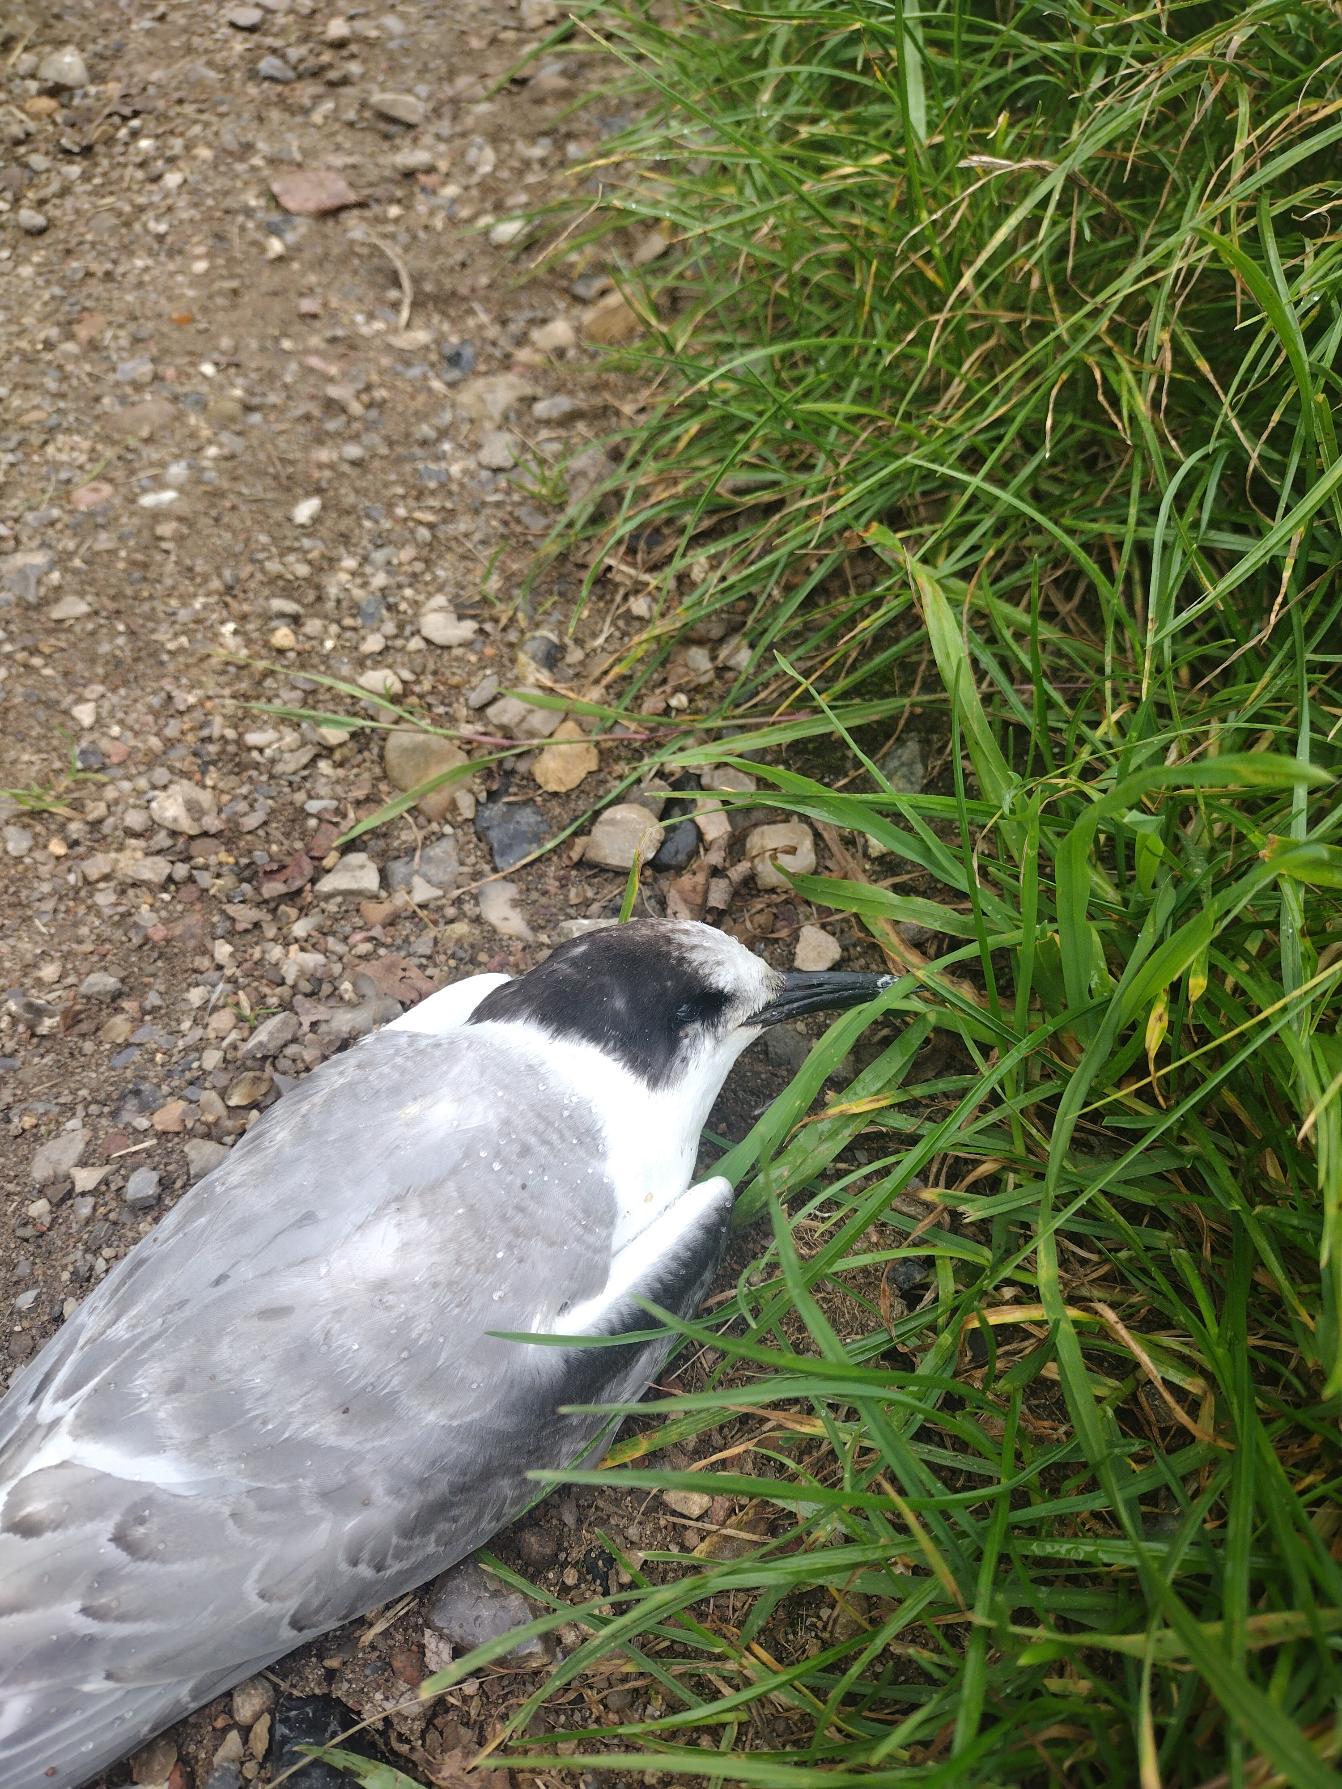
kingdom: Animalia
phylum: Chordata
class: Aves
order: Charadriiformes
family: Laridae
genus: Sterna
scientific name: Sterna paradisaea
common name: Havterne
